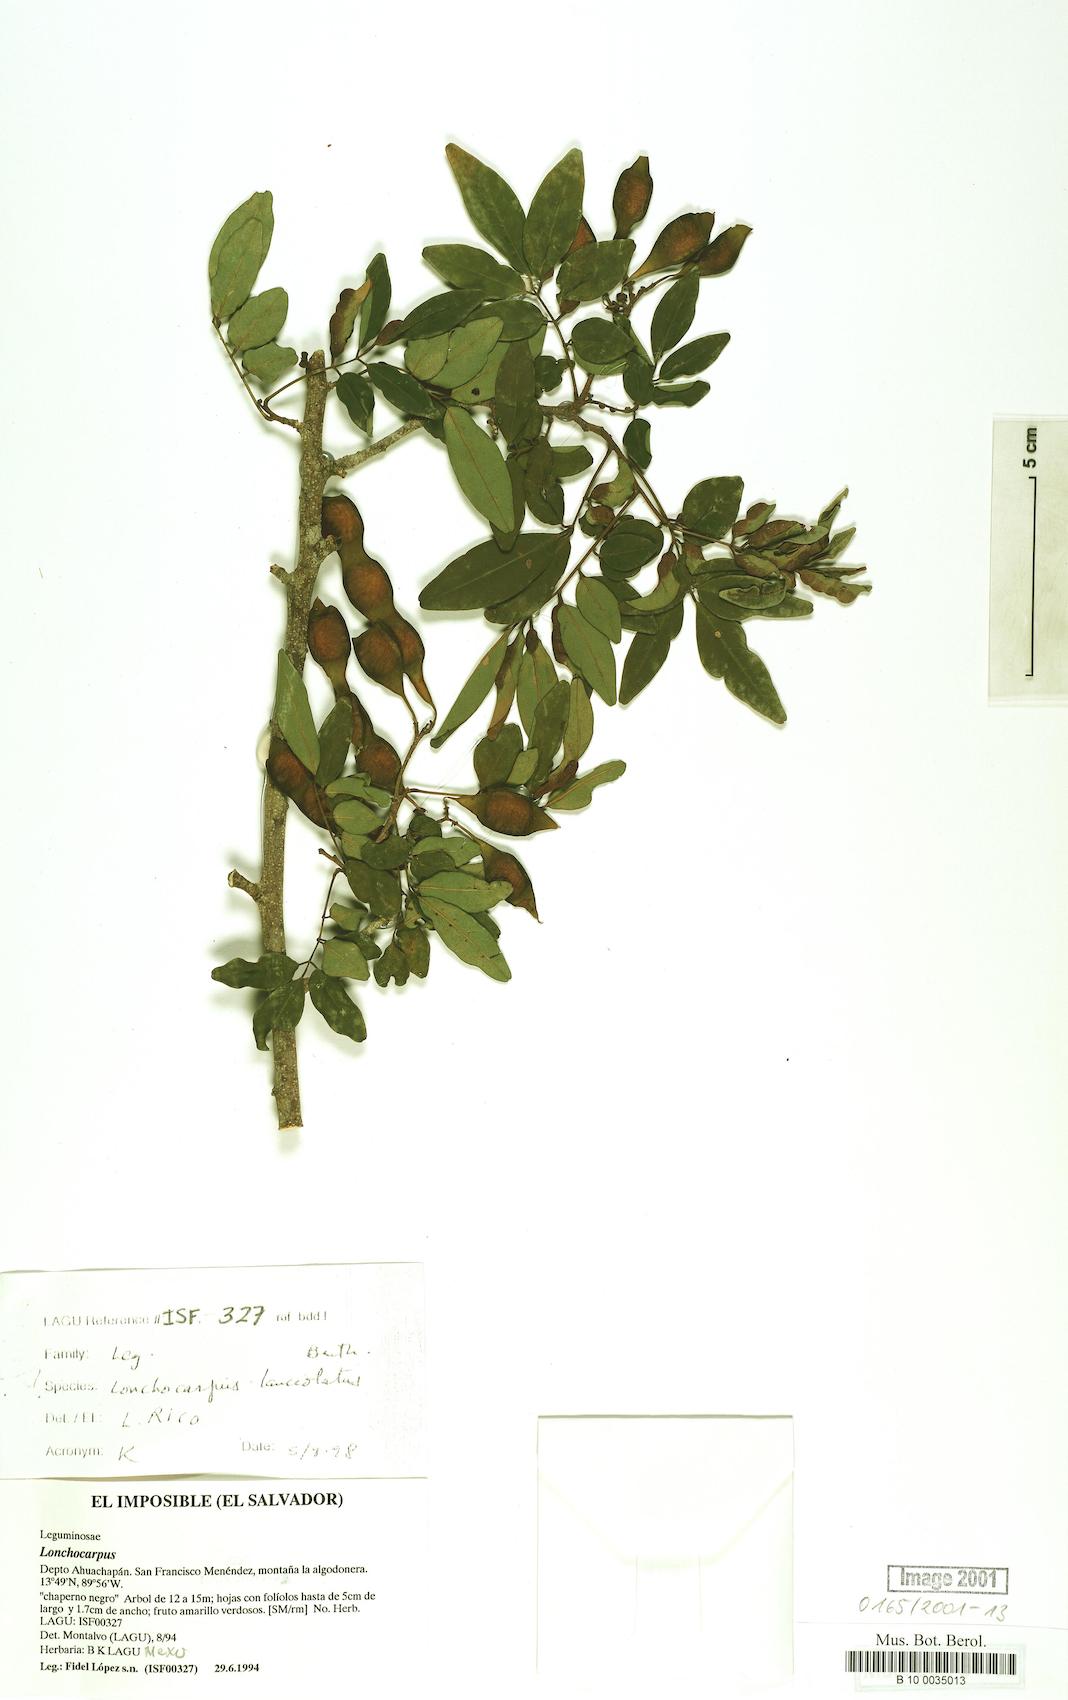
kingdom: Plantae
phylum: Tracheophyta
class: Magnoliopsida
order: Fabales
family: Fabaceae
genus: Lonchocarpus
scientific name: Lonchocarpus stenophyllus
